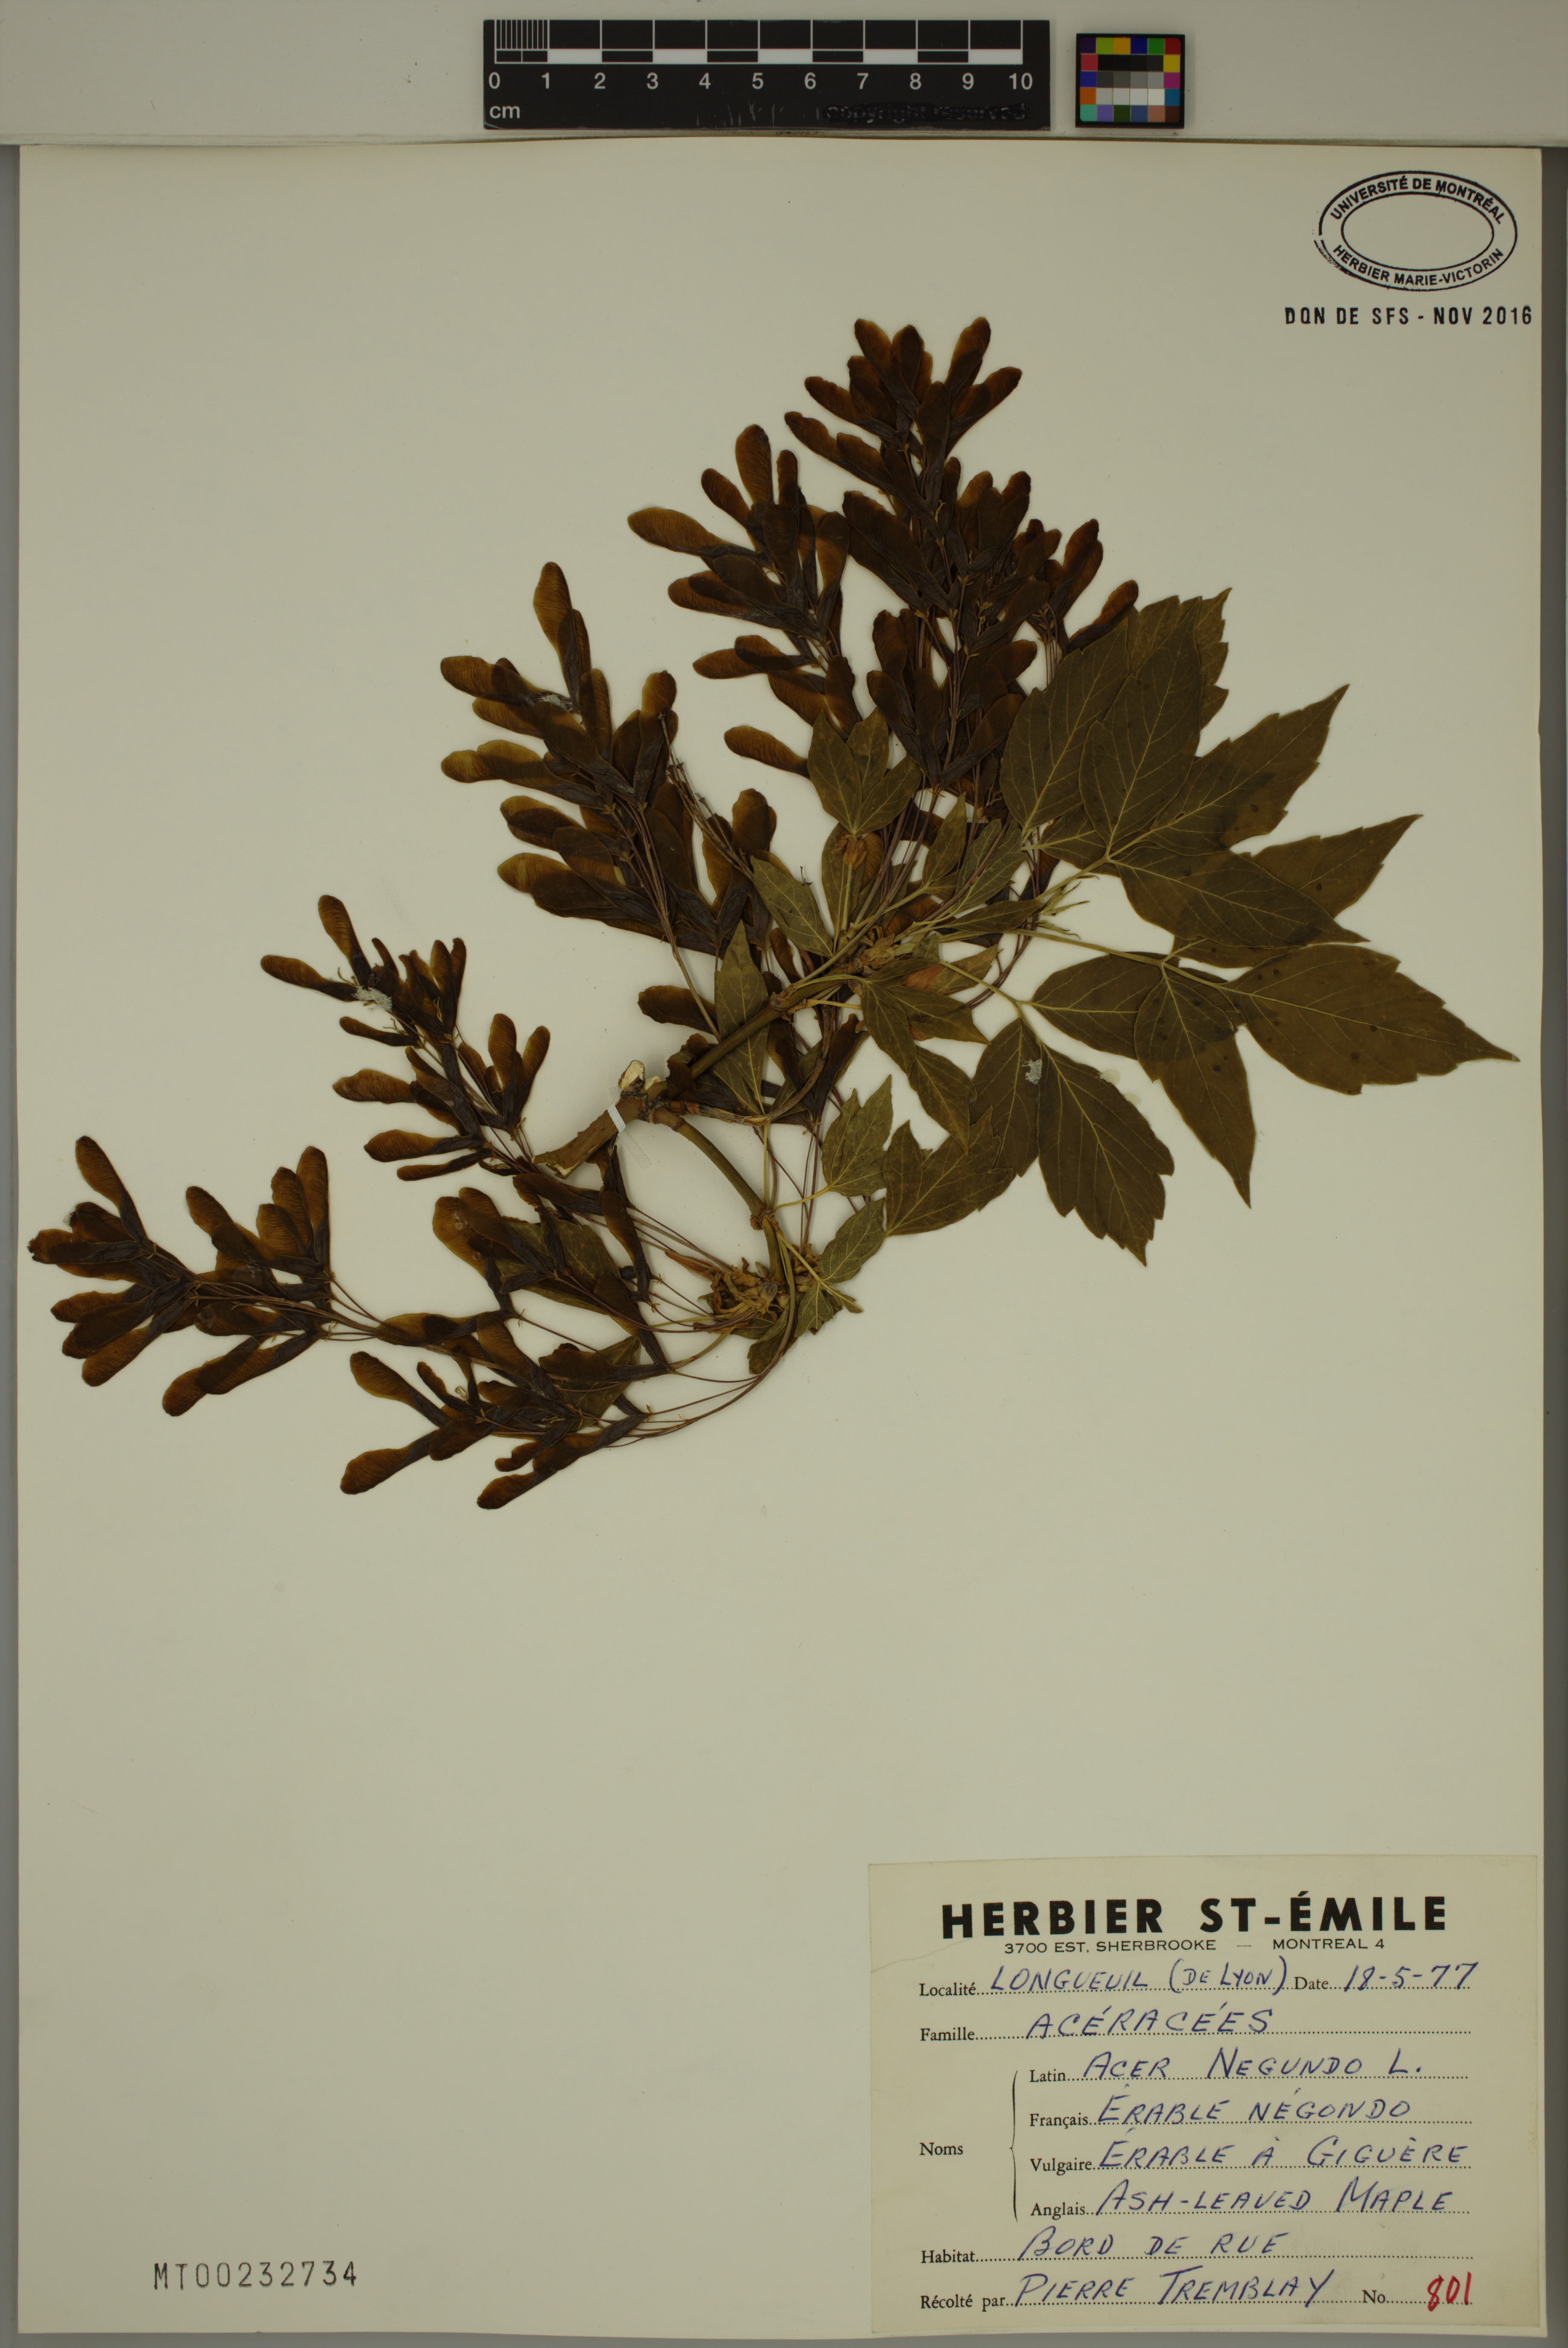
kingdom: Plantae
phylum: Tracheophyta
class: Magnoliopsida
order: Sapindales
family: Sapindaceae
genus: Acer
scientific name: Acer negundo
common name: Ashleaf maple
